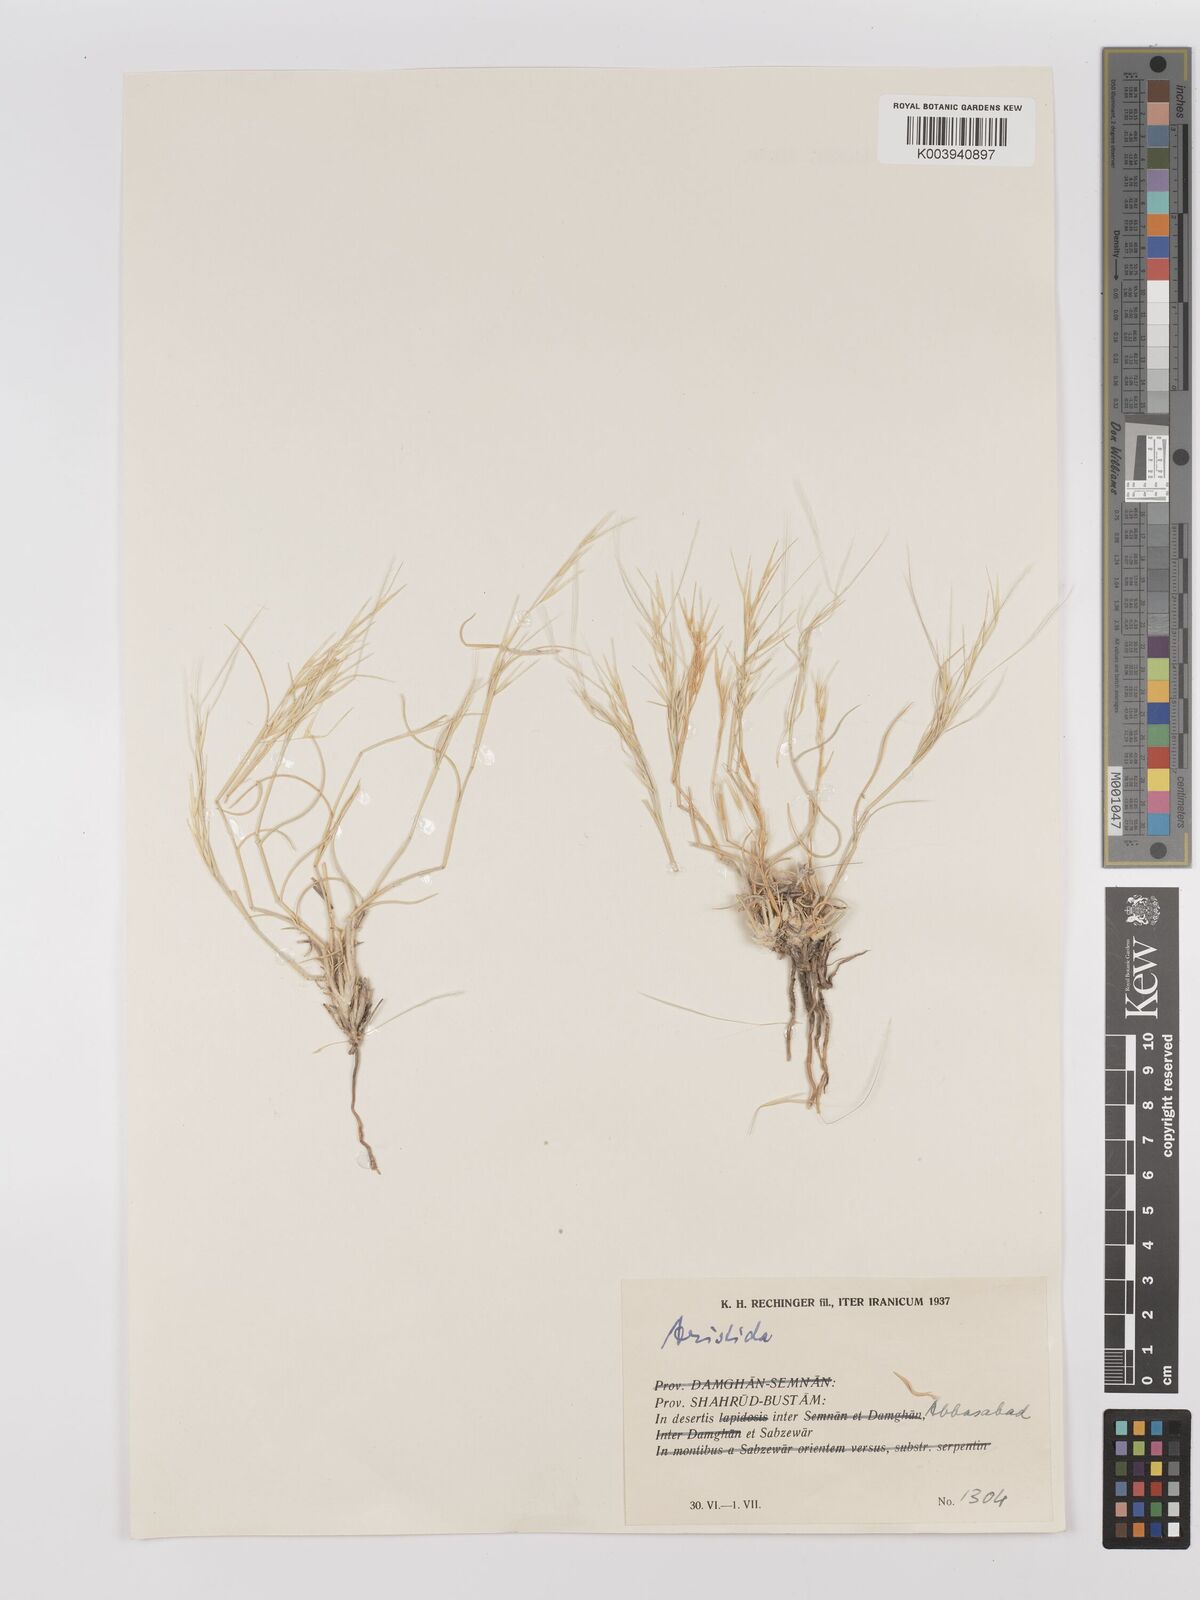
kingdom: Plantae
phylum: Tracheophyta
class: Liliopsida
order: Poales
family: Poaceae
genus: Stipagrostis
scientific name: Stipagrostis
